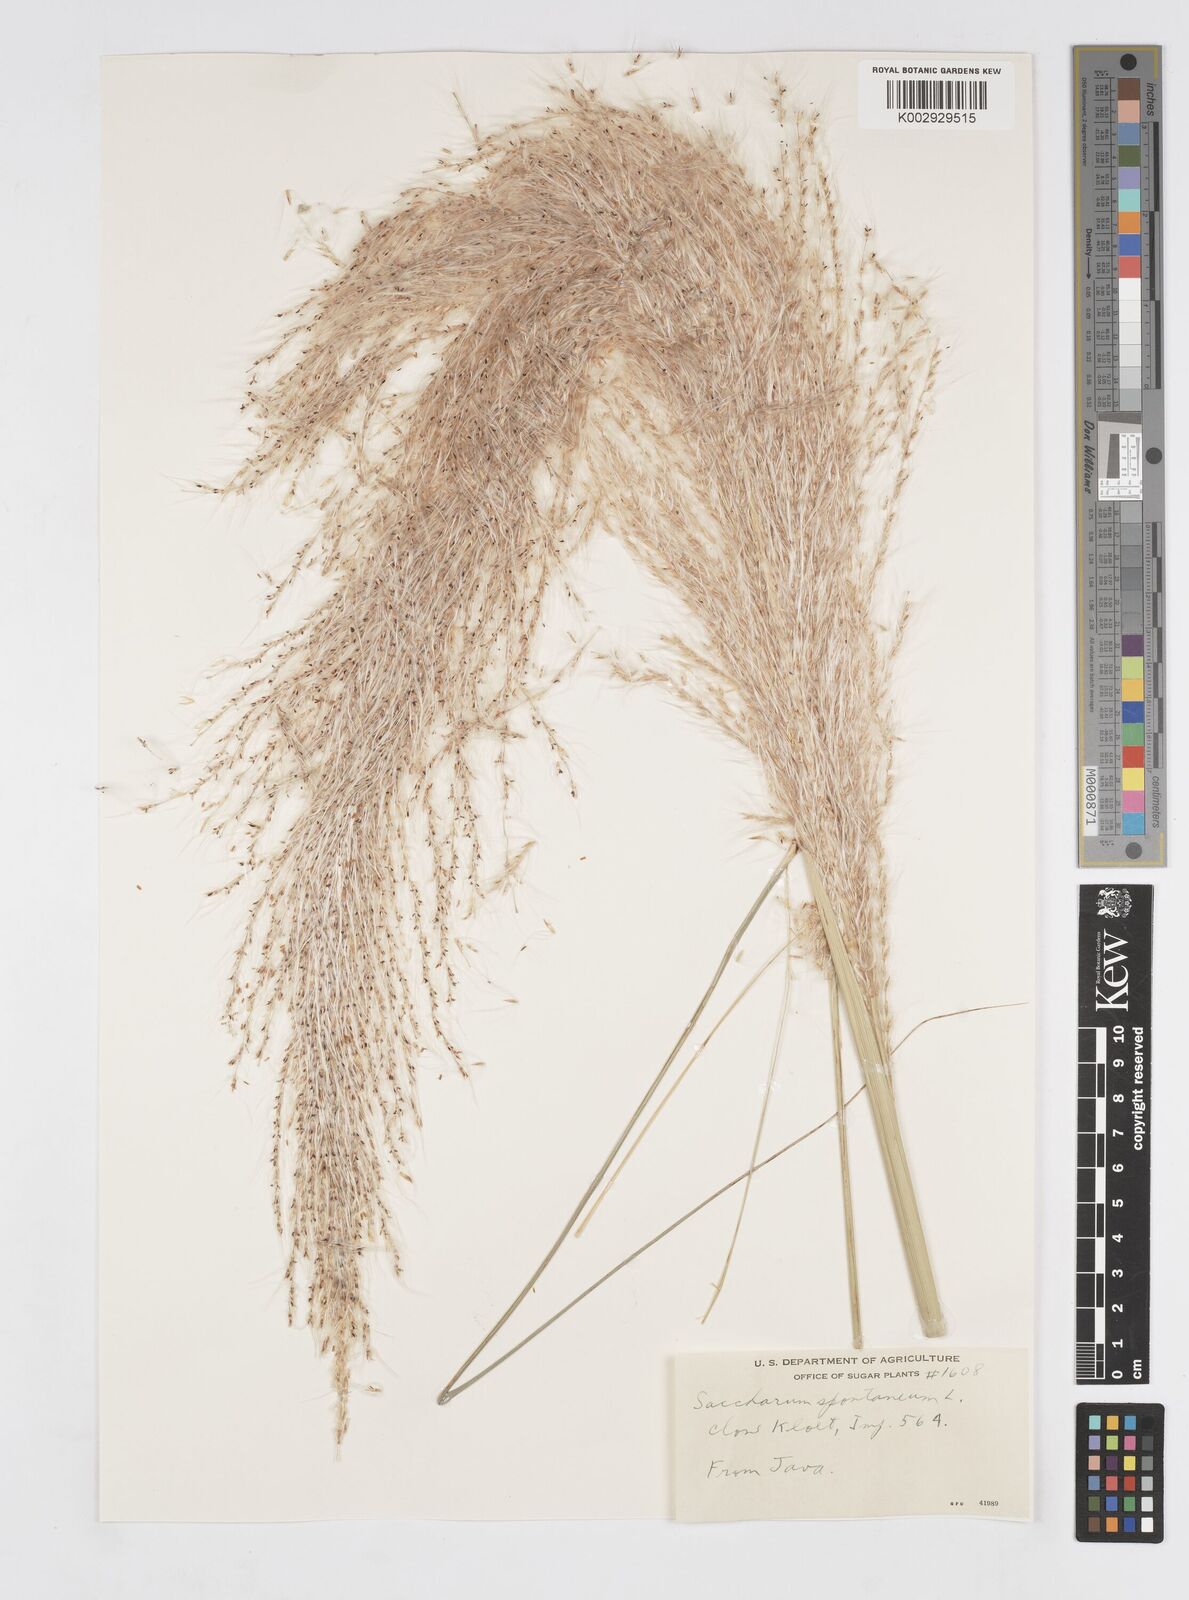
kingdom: Plantae
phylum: Tracheophyta
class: Liliopsida
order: Poales
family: Poaceae
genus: Saccharum
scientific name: Saccharum spontaneum
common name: Wild sugarcane
